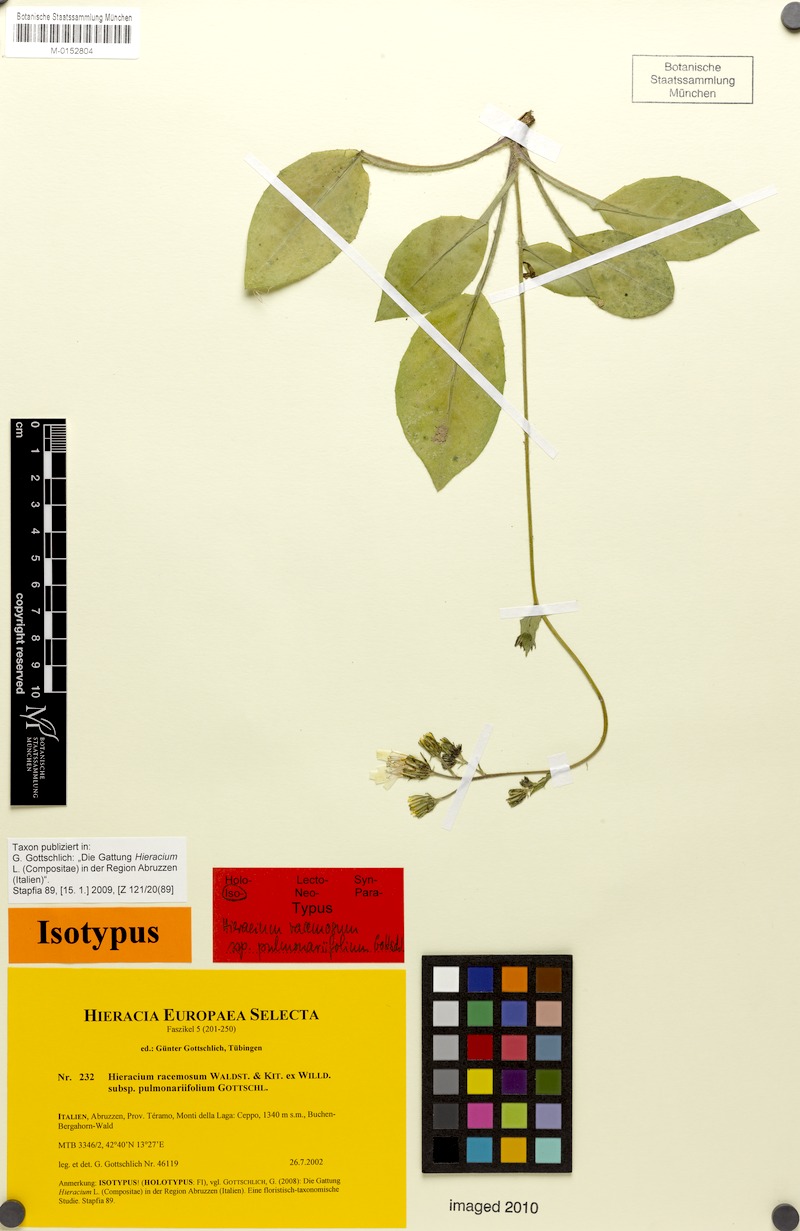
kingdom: Plantae
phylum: Tracheophyta
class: Magnoliopsida
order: Asterales
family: Asteraceae
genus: Hieracium
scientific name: Hieracium racemosum
